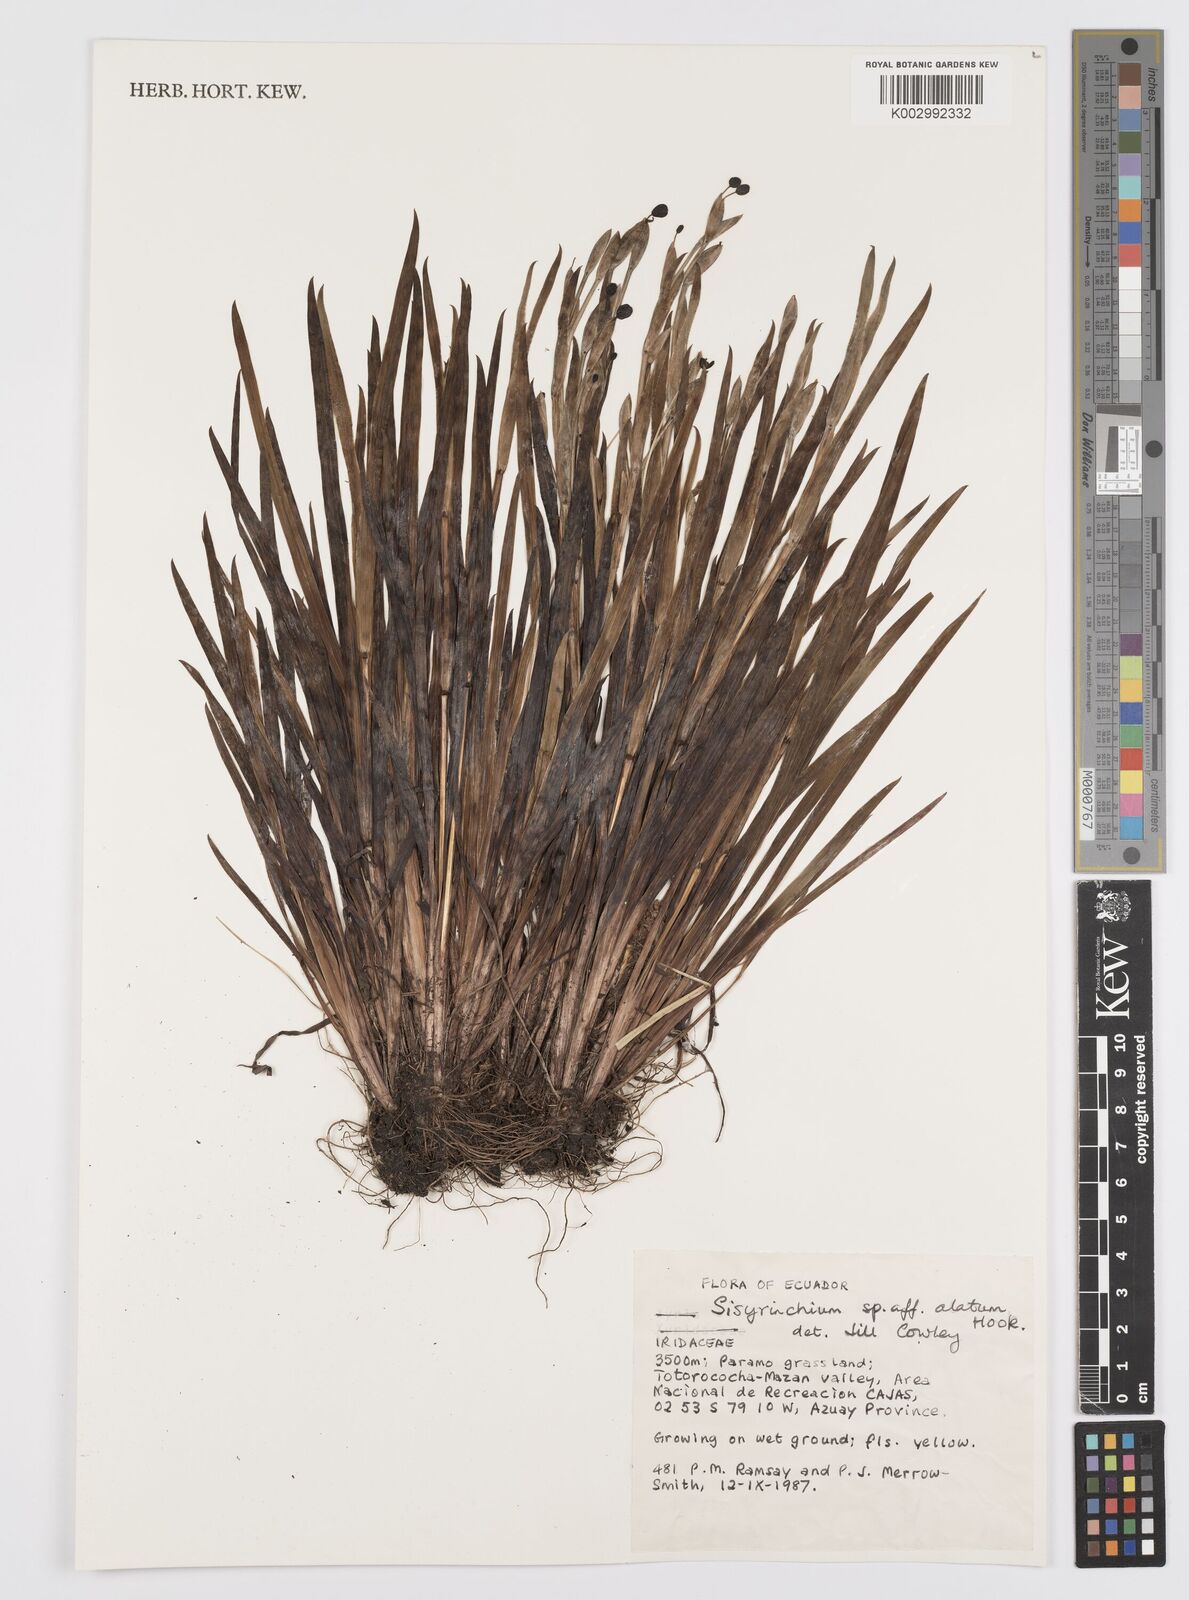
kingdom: Plantae
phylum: Tracheophyta
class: Liliopsida
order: Asparagales
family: Iridaceae
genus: Sisyrinchium
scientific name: Sisyrinchium vaginatum
